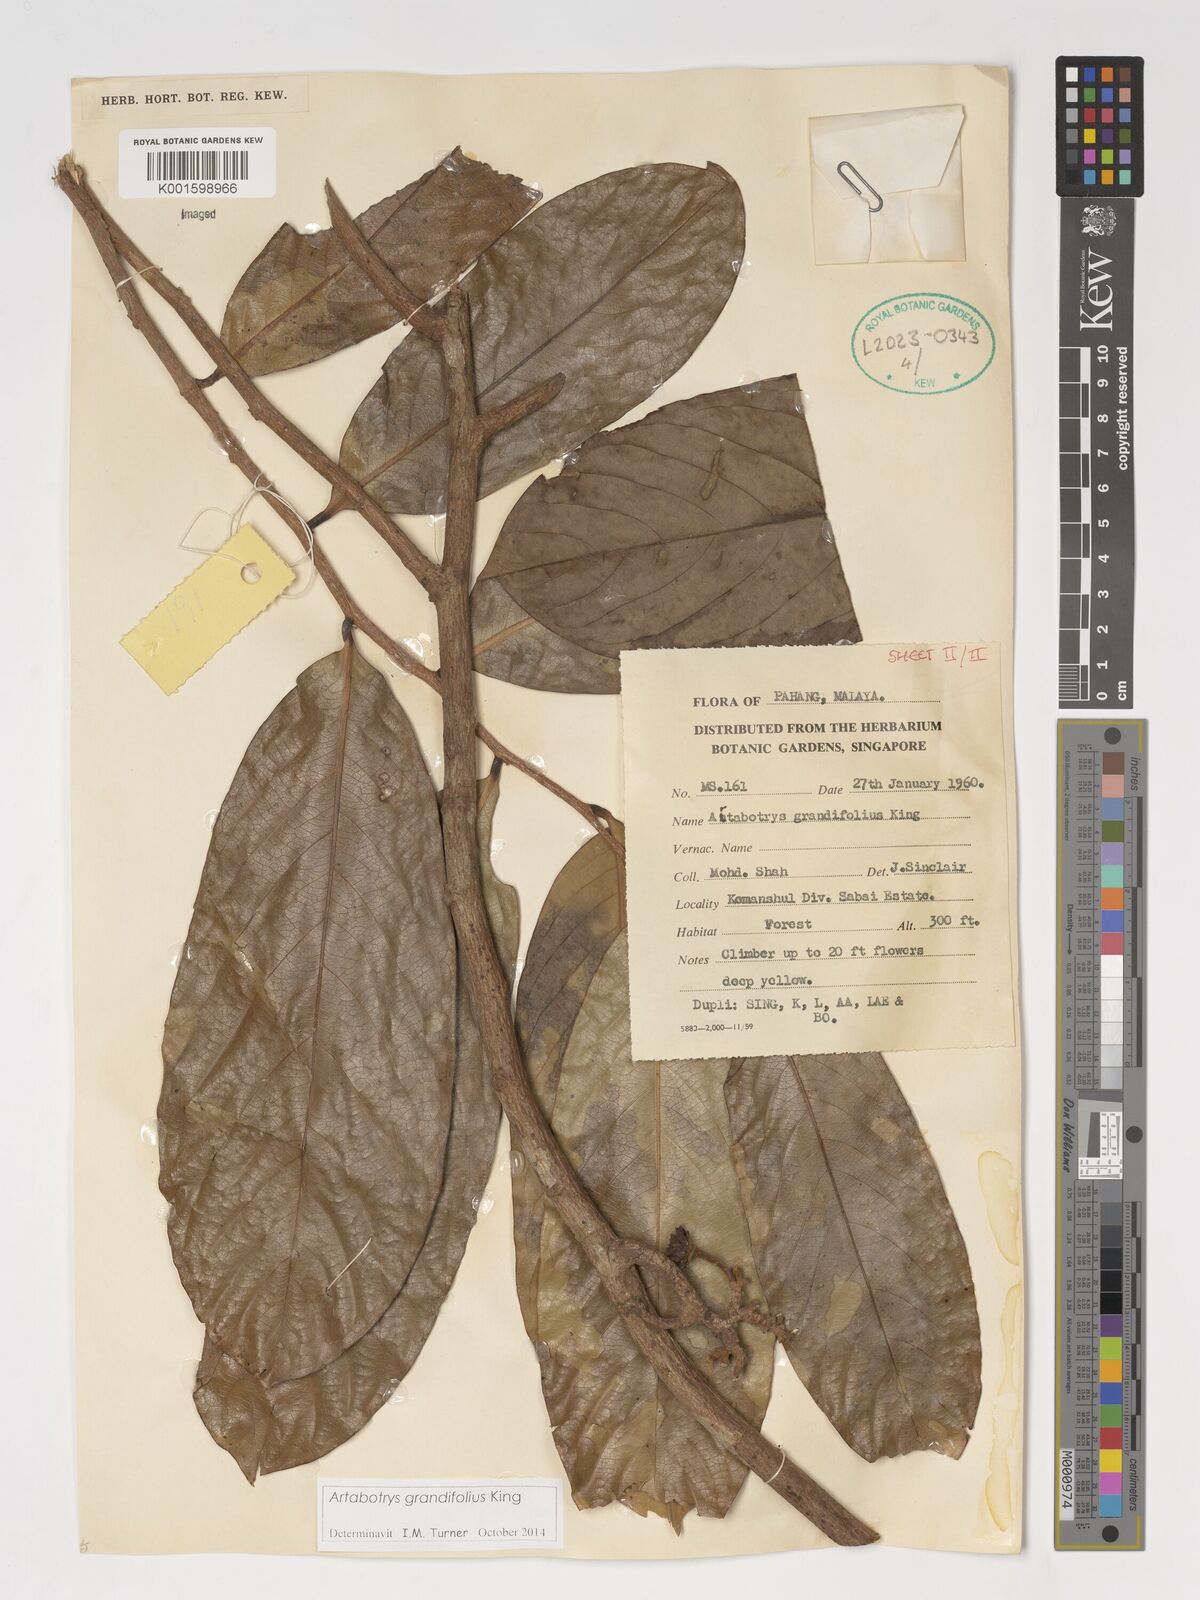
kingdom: Plantae
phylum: Tracheophyta
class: Magnoliopsida
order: Magnoliales
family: Annonaceae
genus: Artabotrys
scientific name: Artabotrys grandifolius
